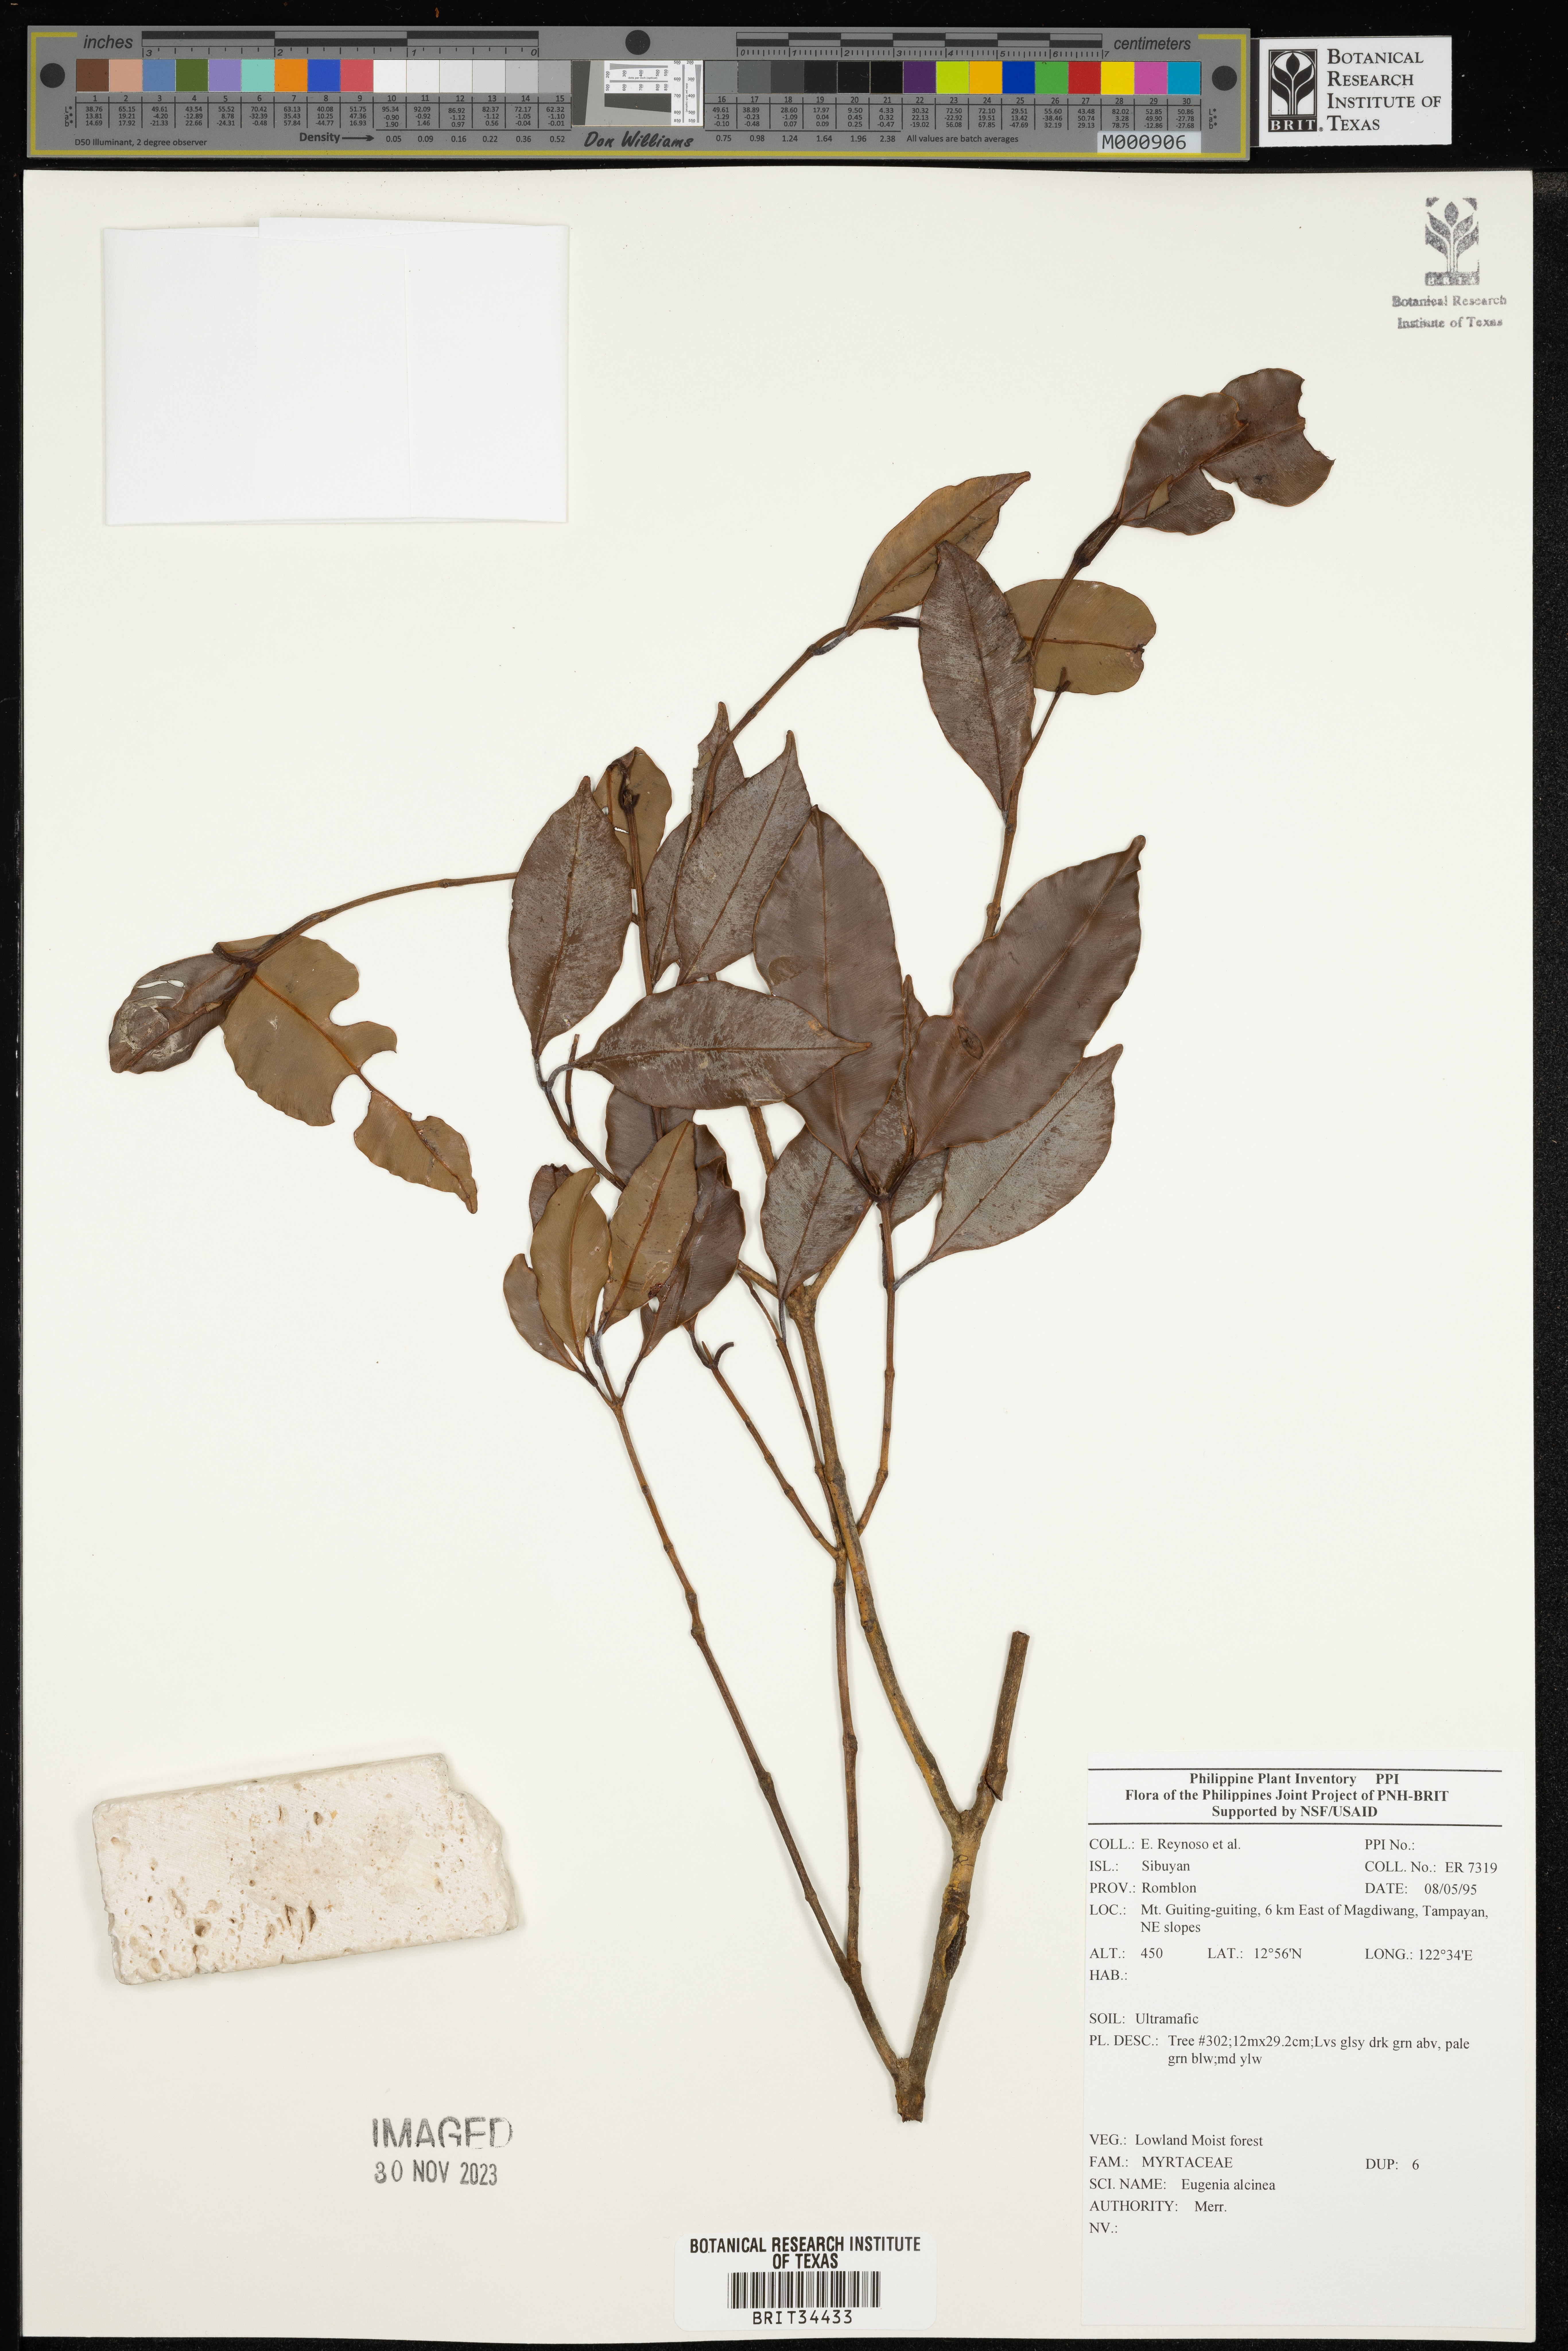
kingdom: Plantae
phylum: Tracheophyta
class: Magnoliopsida
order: Myrtales
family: Myrtaceae
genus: Eugenia
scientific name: Eugenia
